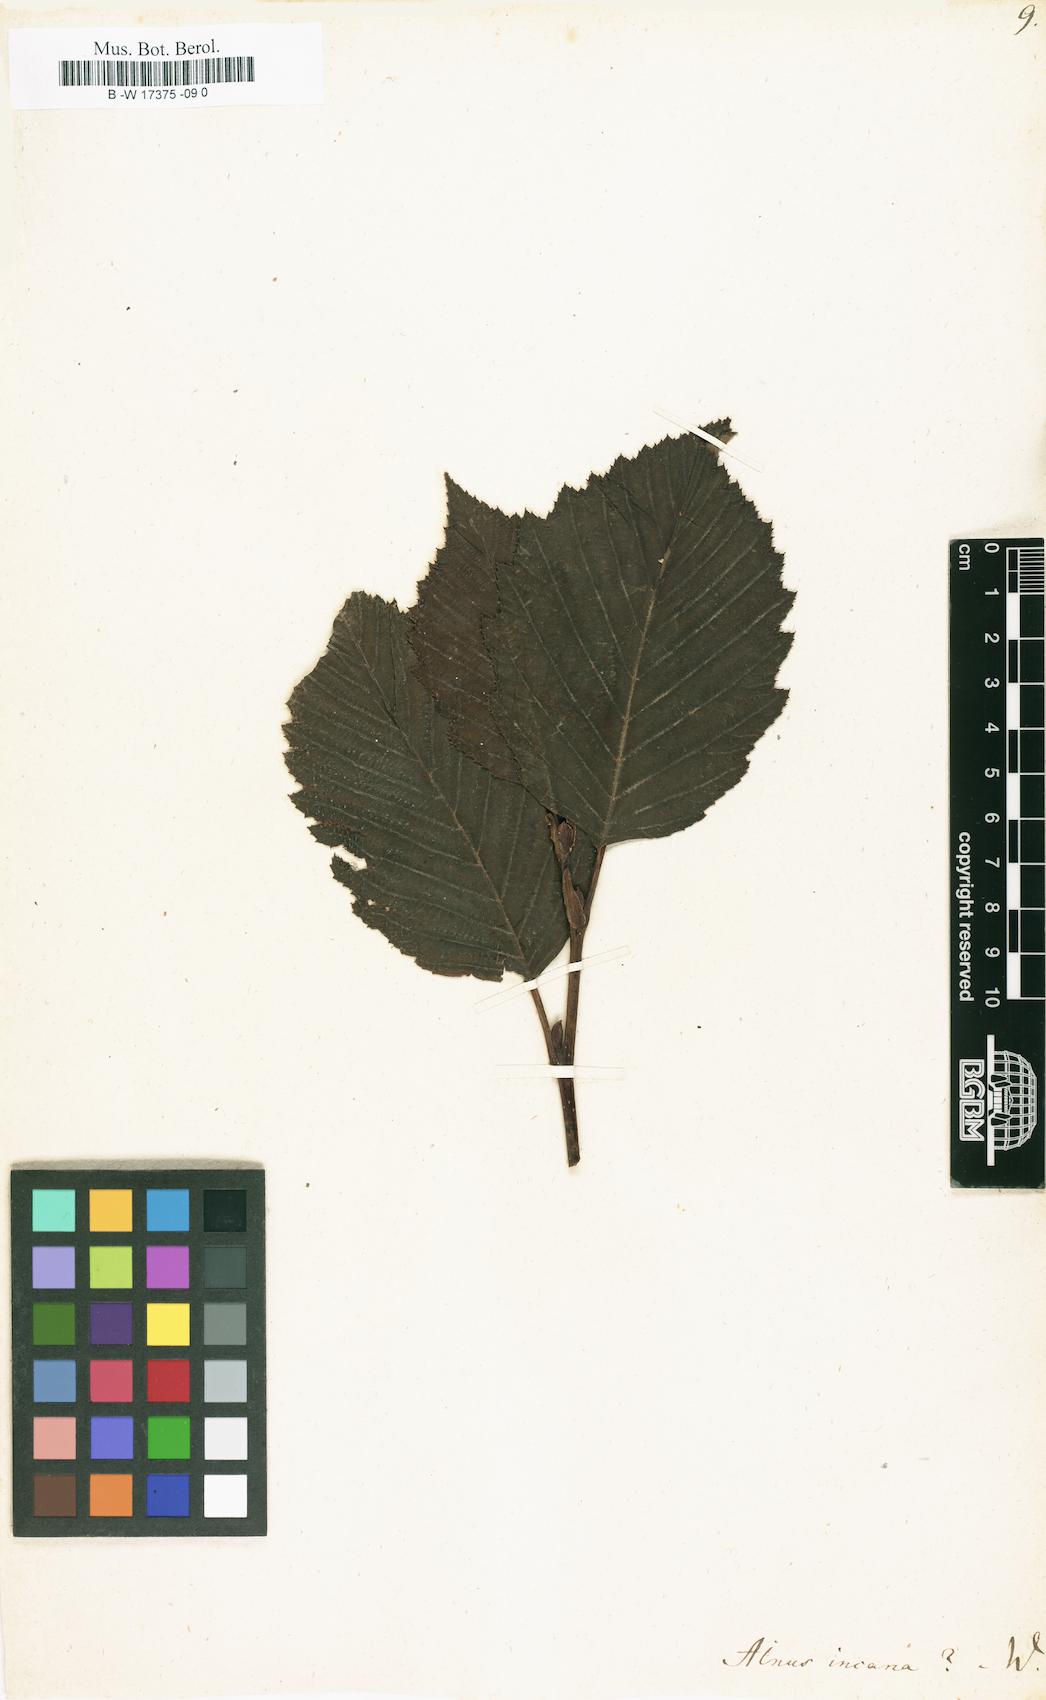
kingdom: Plantae
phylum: Tracheophyta
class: Magnoliopsida
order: Fagales
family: Betulaceae
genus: Alnus
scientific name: Alnus incana
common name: Grey alder
